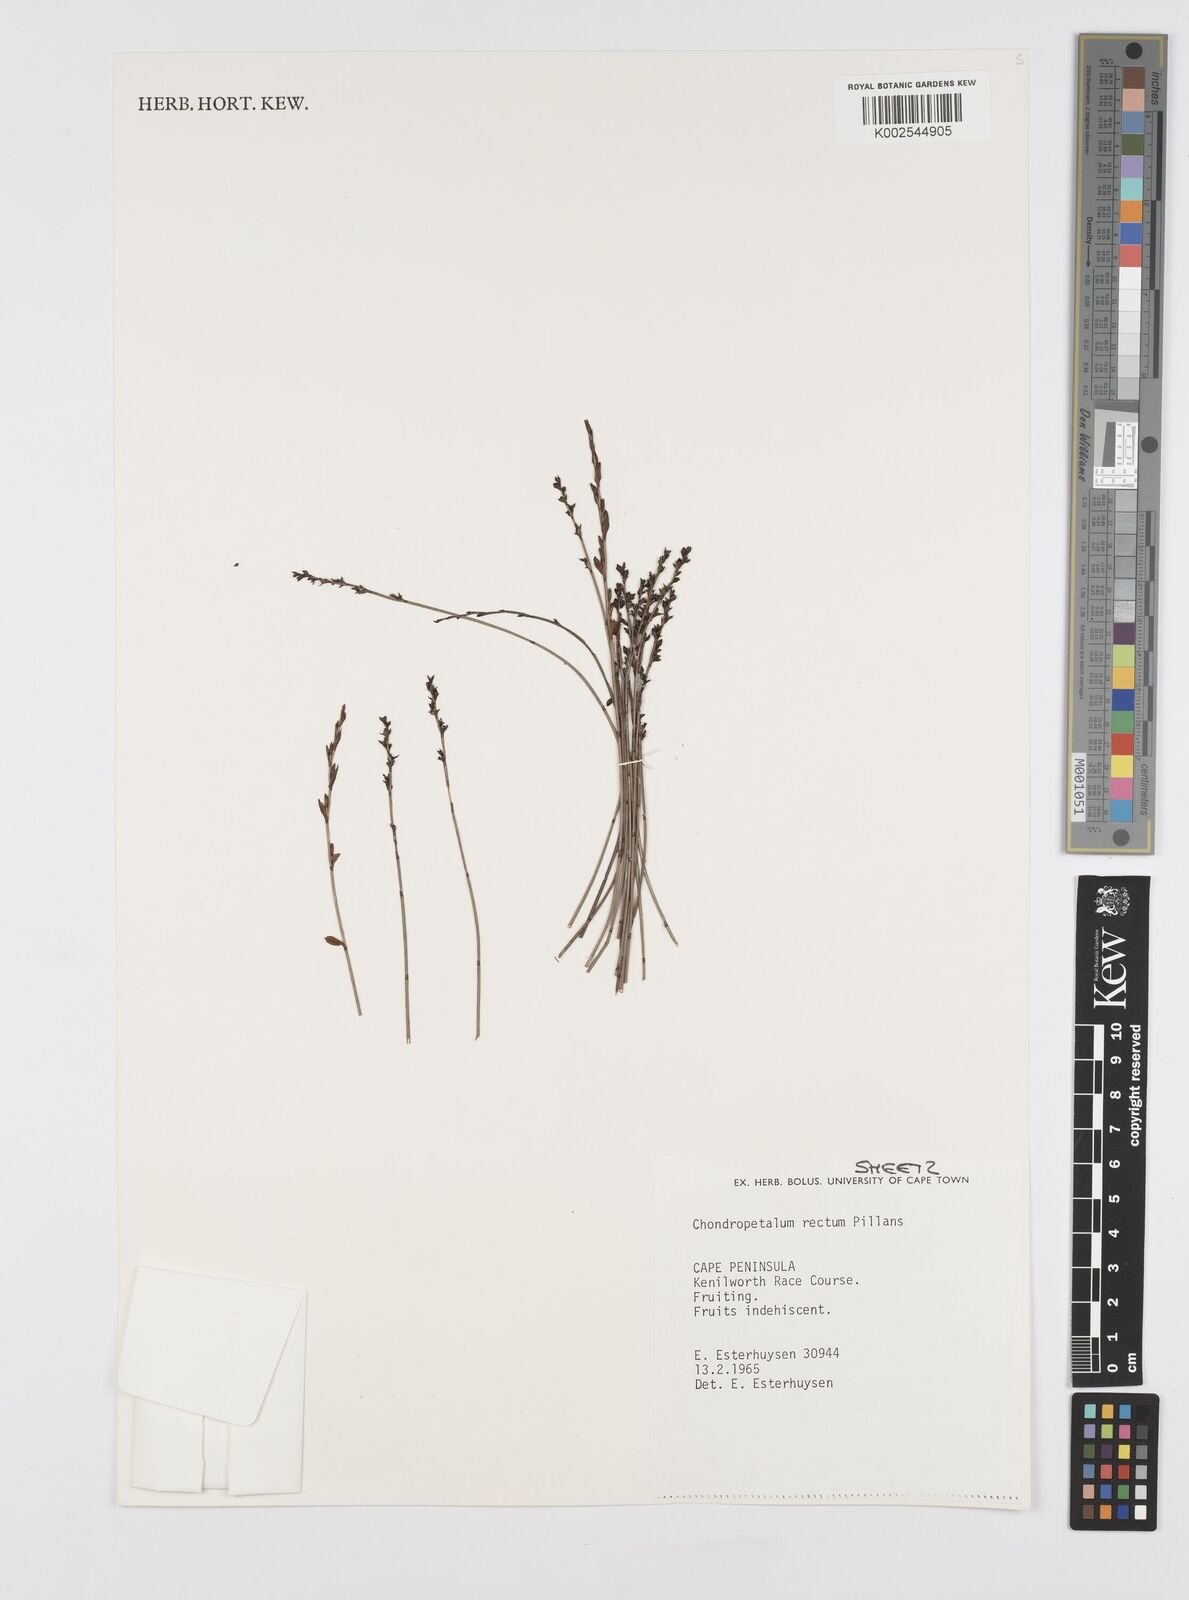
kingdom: Plantae
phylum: Tracheophyta
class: Liliopsida
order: Poales
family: Restionaceae
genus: Elegia
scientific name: Elegia recta
